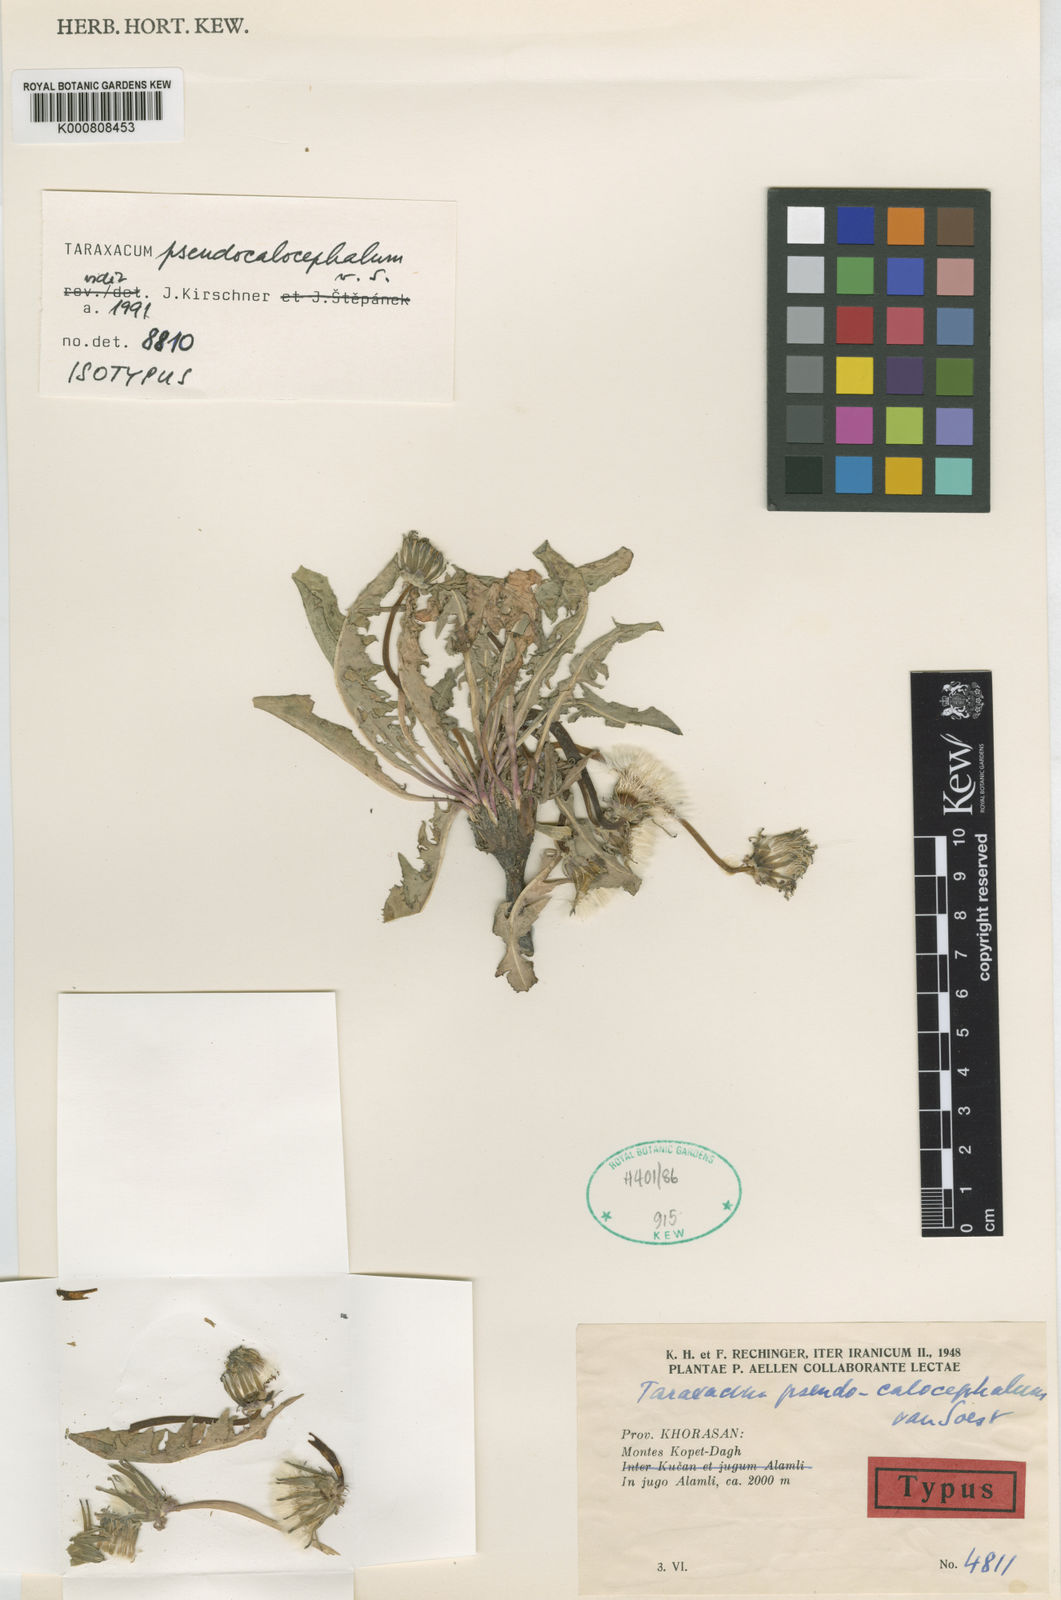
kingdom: Plantae
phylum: Tracheophyta
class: Magnoliopsida
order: Asterales
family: Asteraceae
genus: Taraxacum
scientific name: Taraxacum pseudocalocephalum
